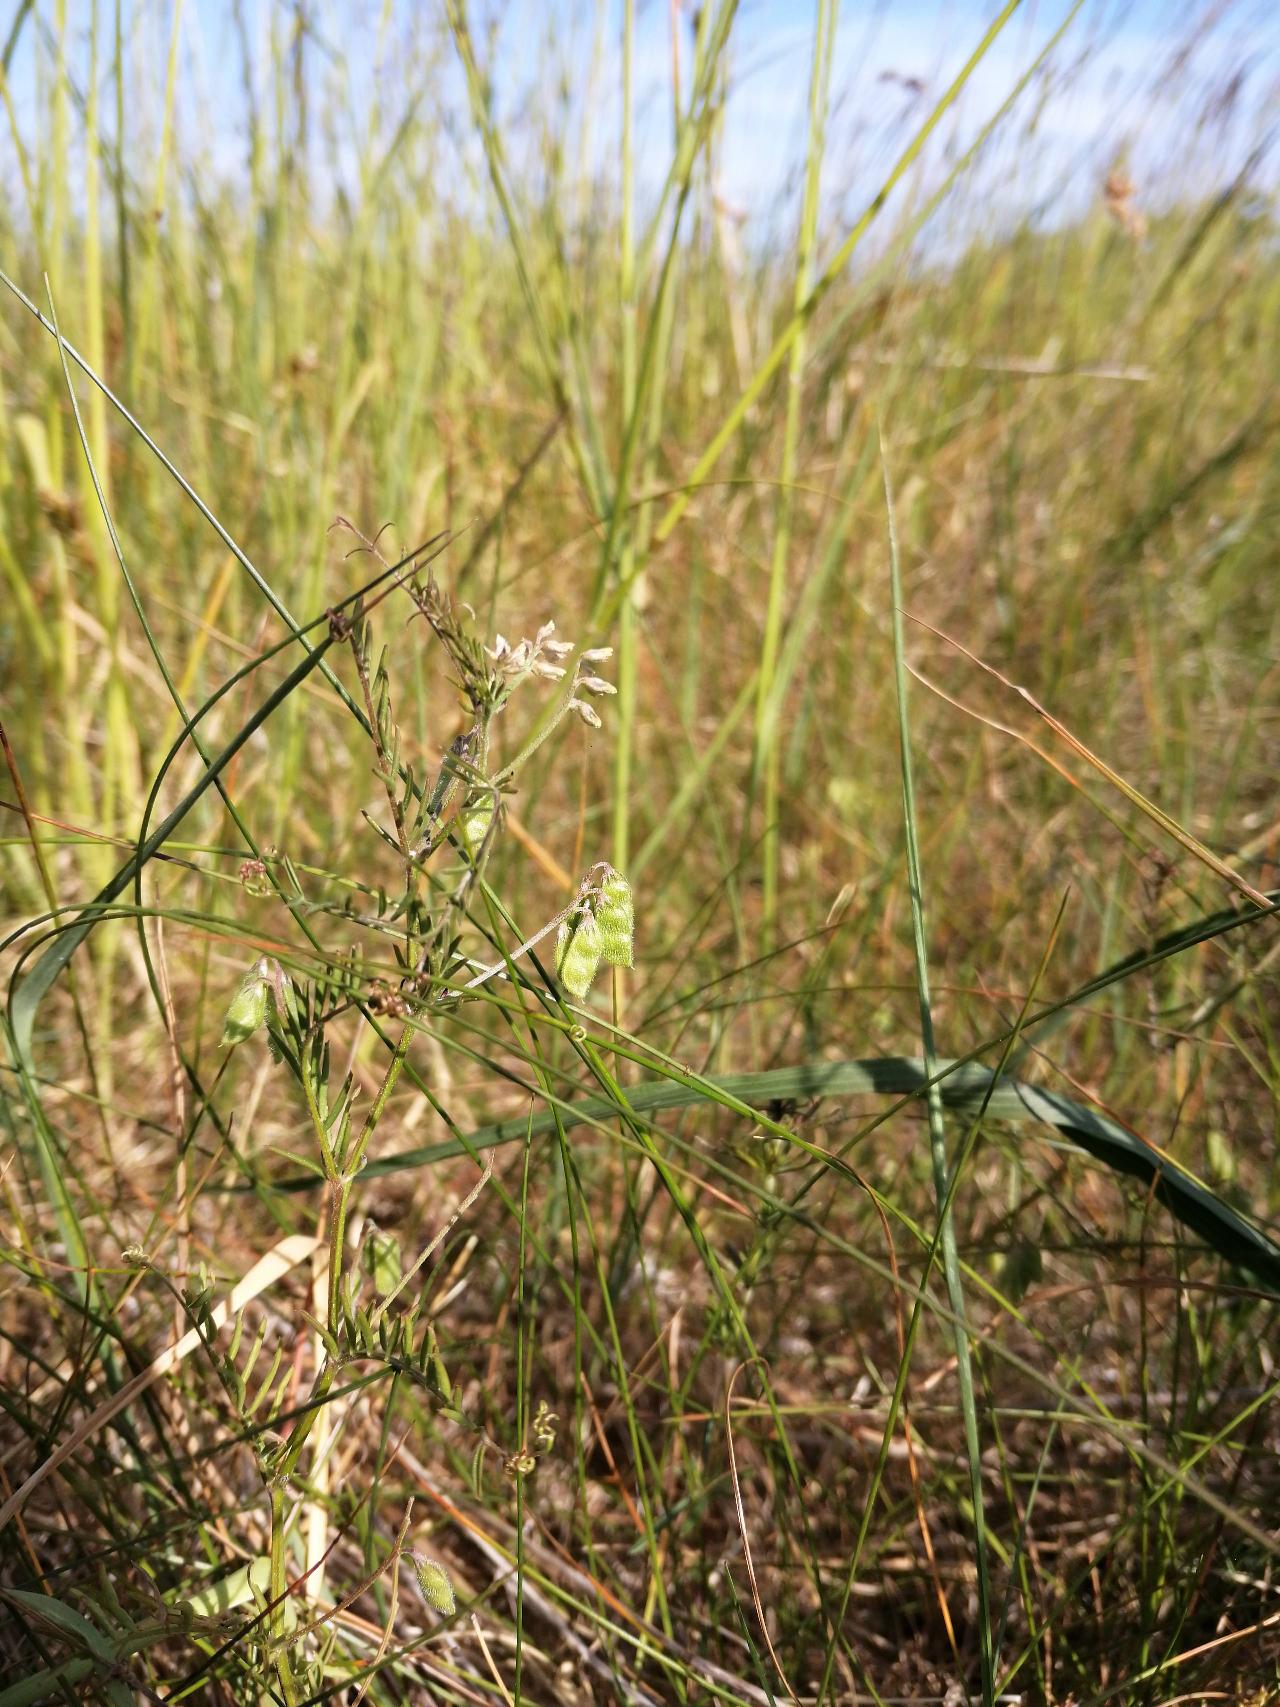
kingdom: Plantae
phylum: Tracheophyta
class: Magnoliopsida
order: Fabales
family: Fabaceae
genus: Vicia
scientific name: Vicia hirsuta
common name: Tofrøet vikke
